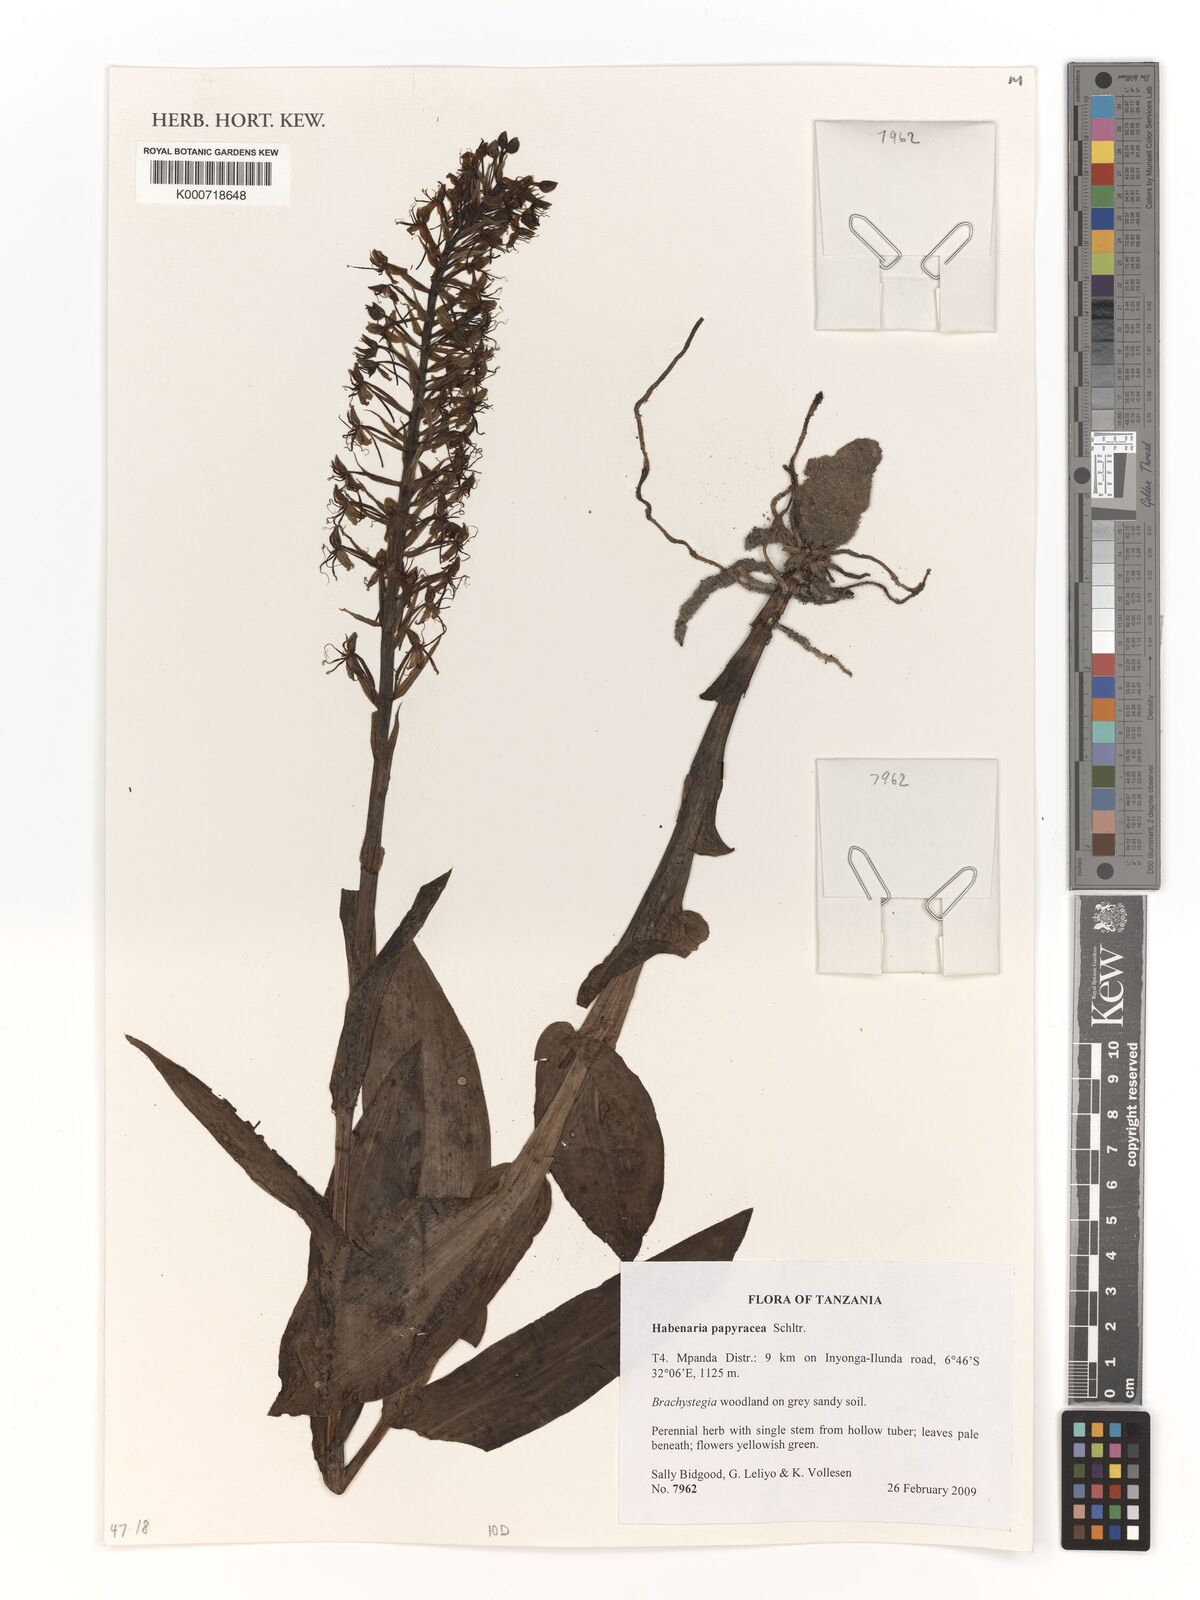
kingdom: Plantae
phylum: Tracheophyta
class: Liliopsida
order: Asparagales
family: Orchidaceae
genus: Habenaria
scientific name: Habenaria papyracea
